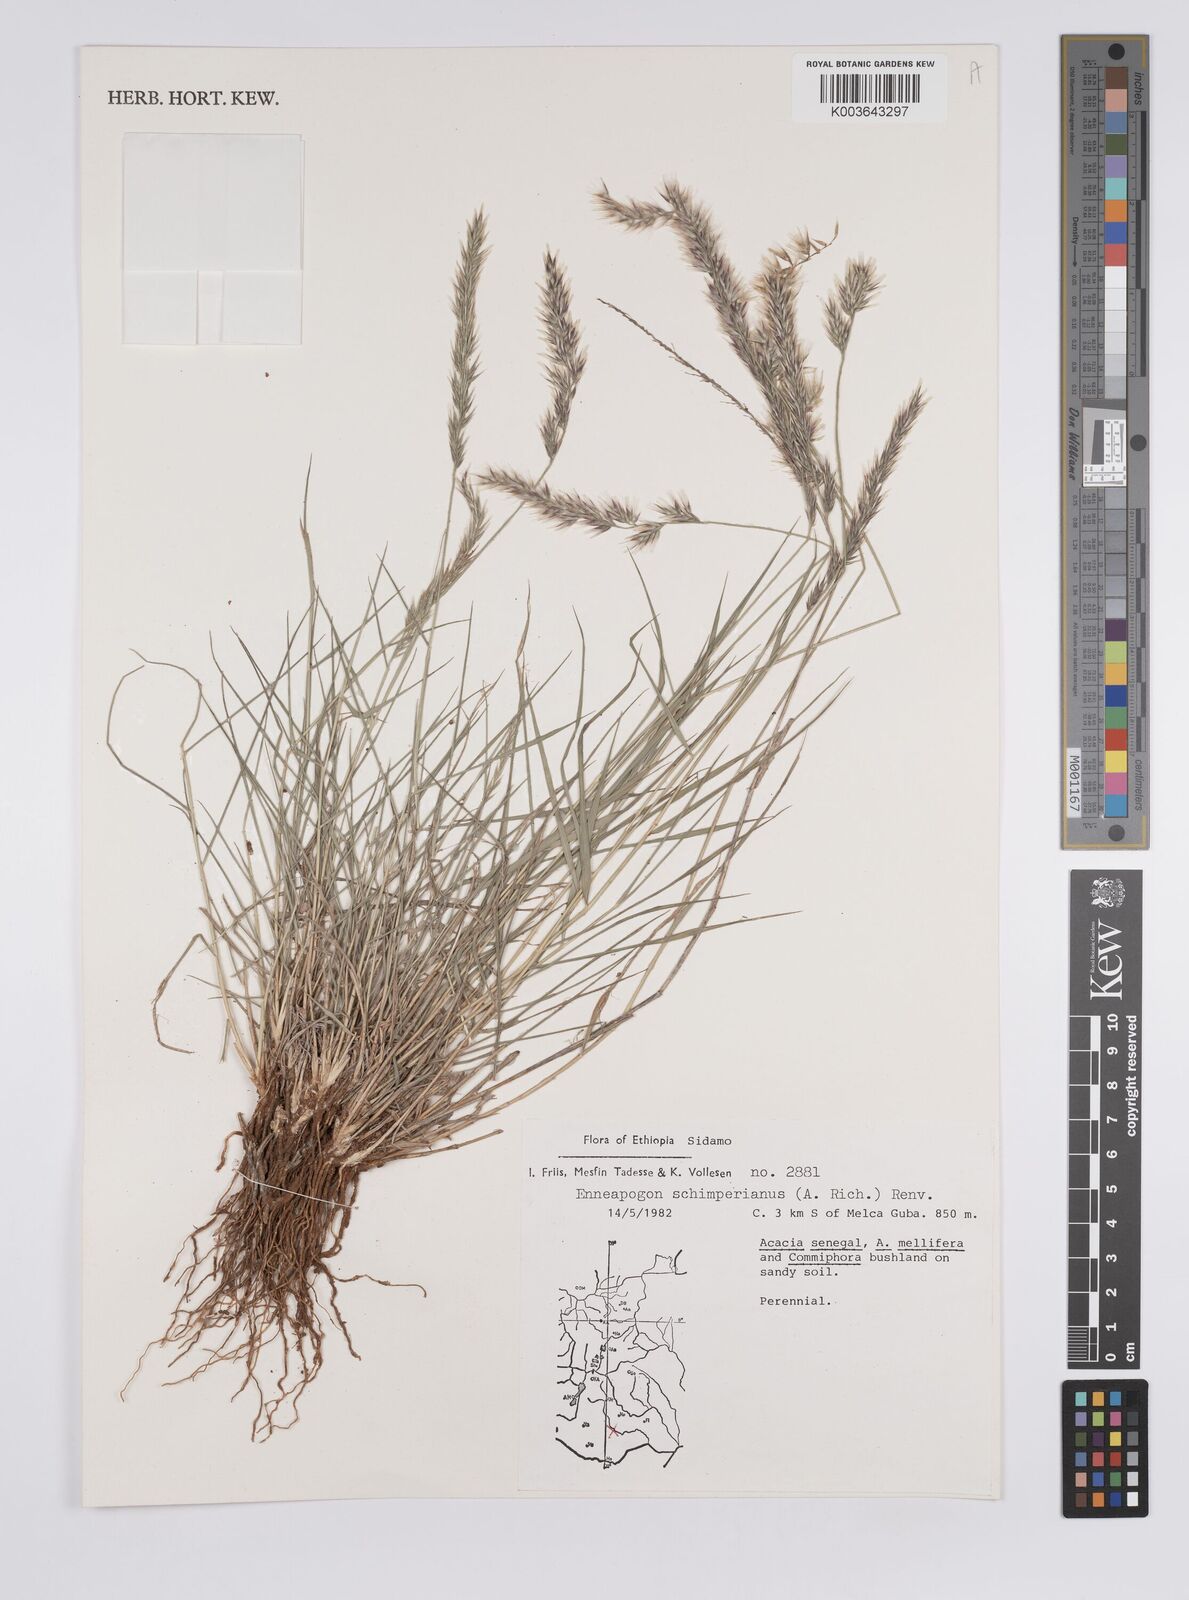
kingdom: Plantae
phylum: Tracheophyta
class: Liliopsida
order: Poales
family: Poaceae
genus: Enneapogon
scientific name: Enneapogon persicus
